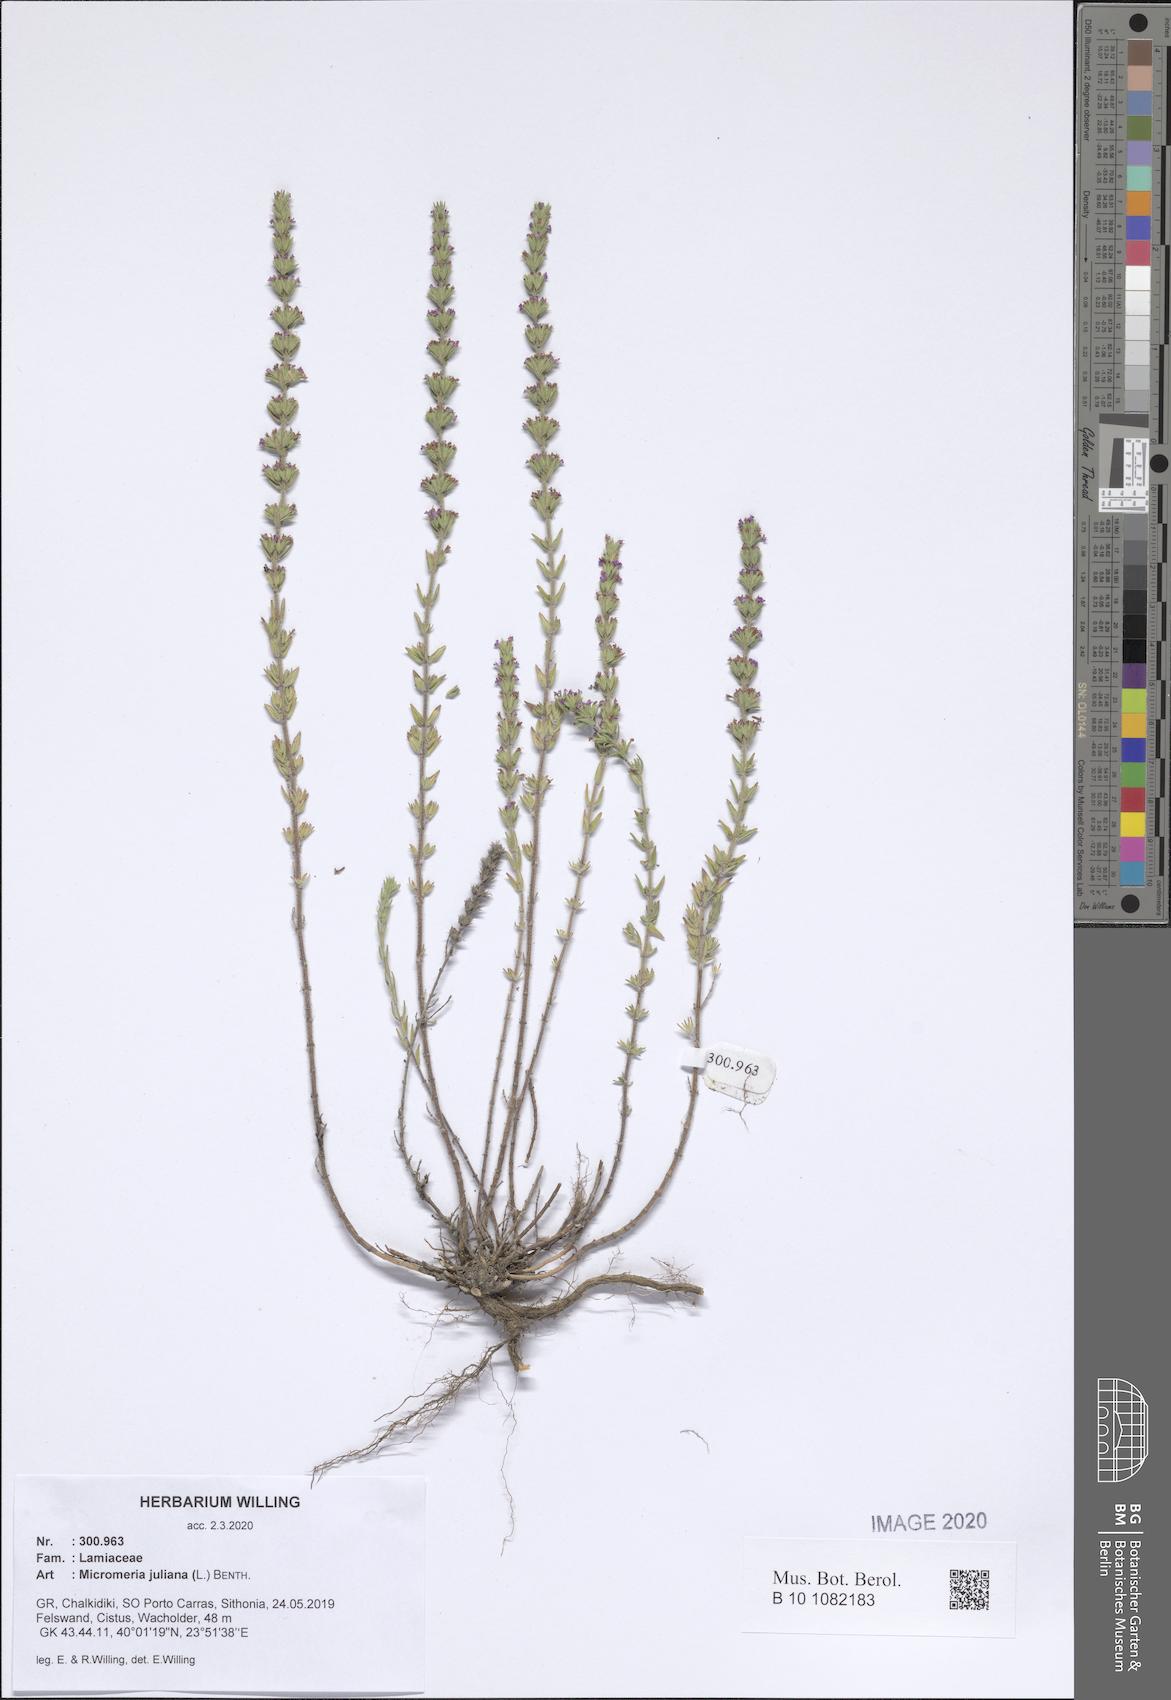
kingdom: Plantae
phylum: Tracheophyta
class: Magnoliopsida
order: Lamiales
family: Lamiaceae
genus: Micromeria
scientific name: Micromeria juliana
